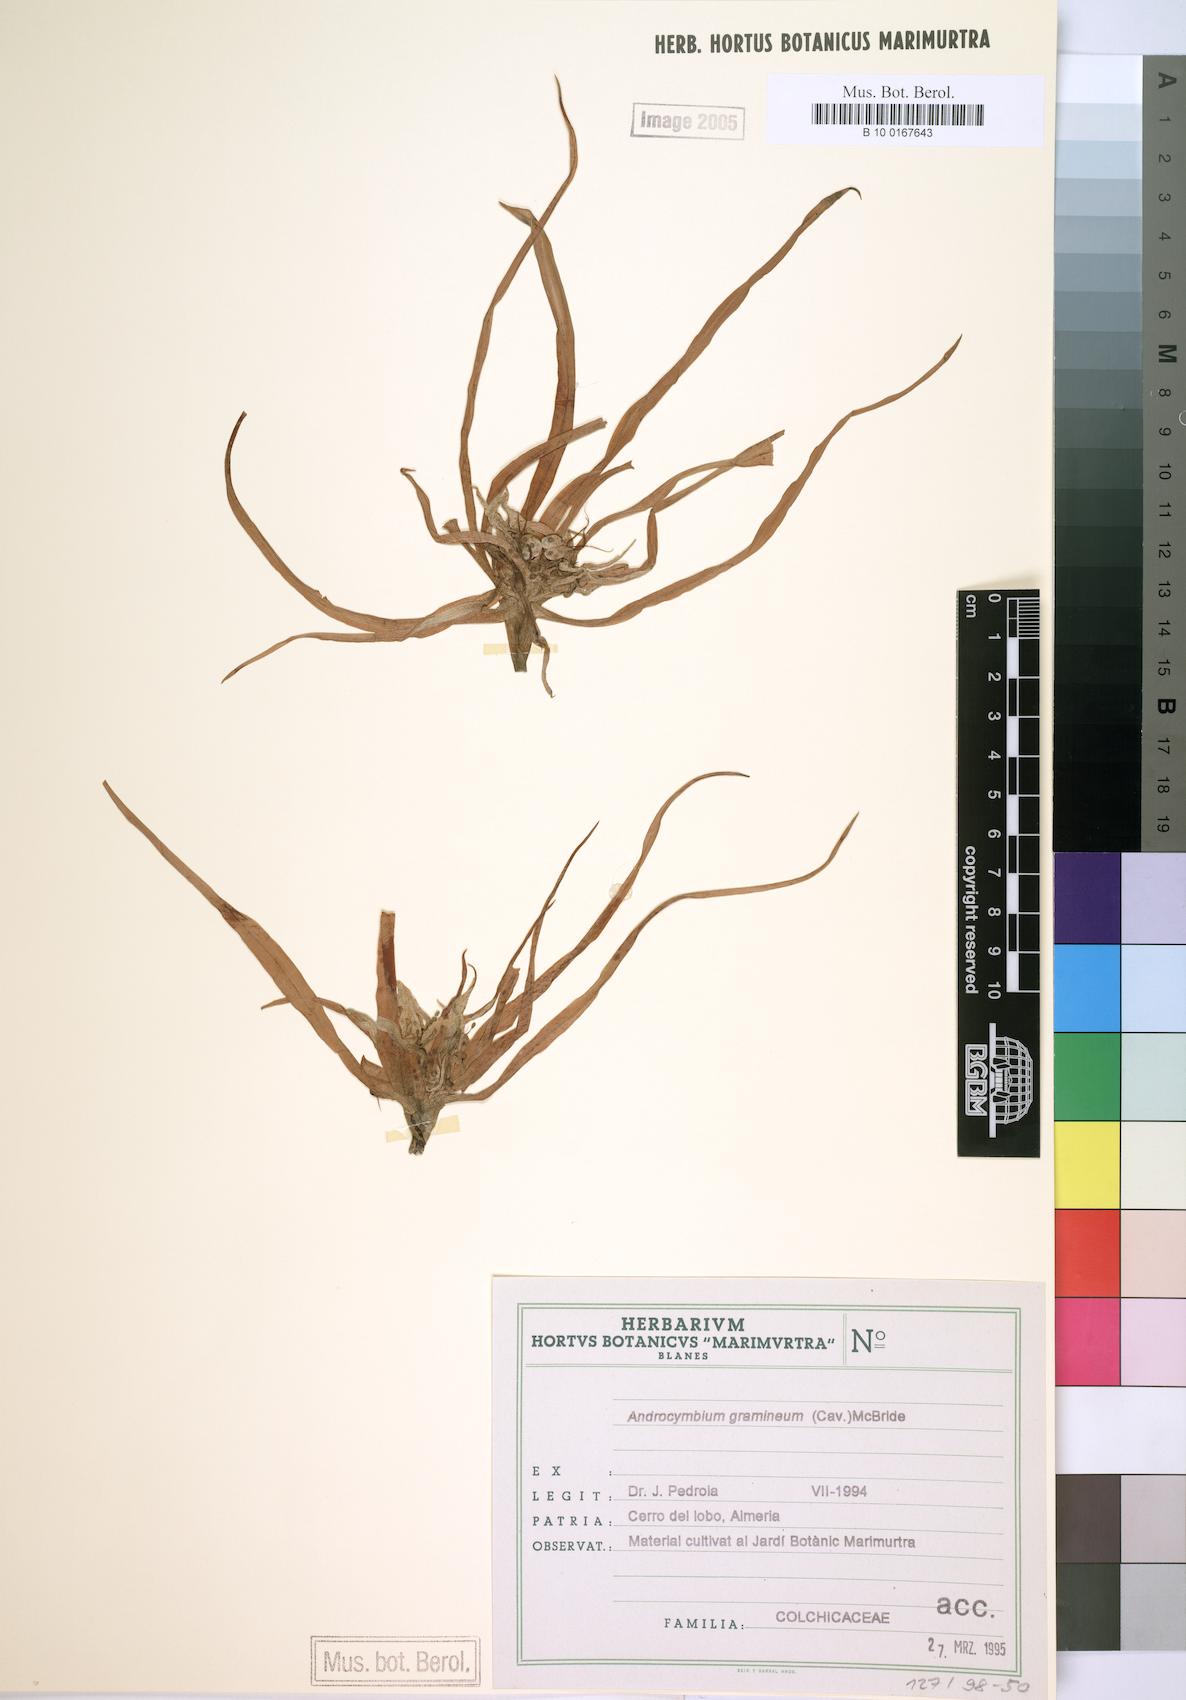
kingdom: Plantae
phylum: Tracheophyta
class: Liliopsida
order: Liliales
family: Colchicaceae
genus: Colchicum
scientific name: Colchicum gramineum
